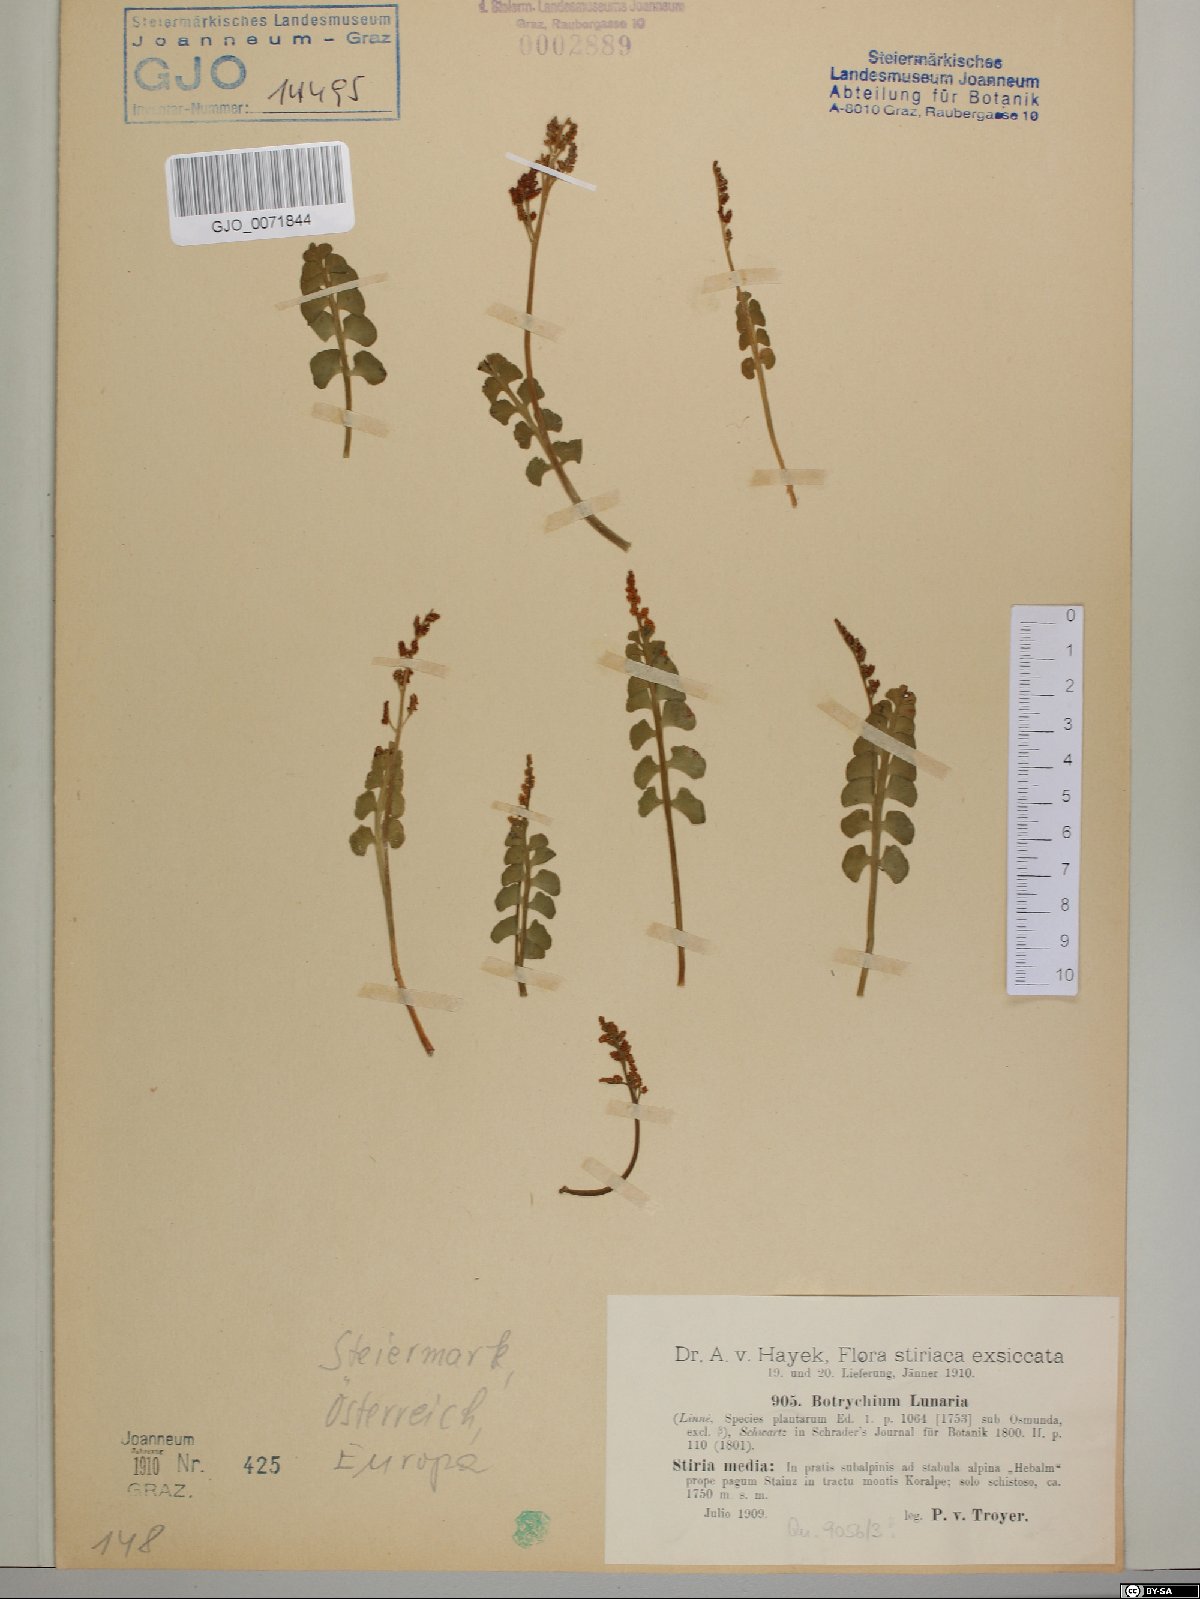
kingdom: Plantae
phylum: Tracheophyta
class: Polypodiopsida
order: Ophioglossales
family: Ophioglossaceae
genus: Botrychium
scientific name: Botrychium lunaria
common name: Moonwort
